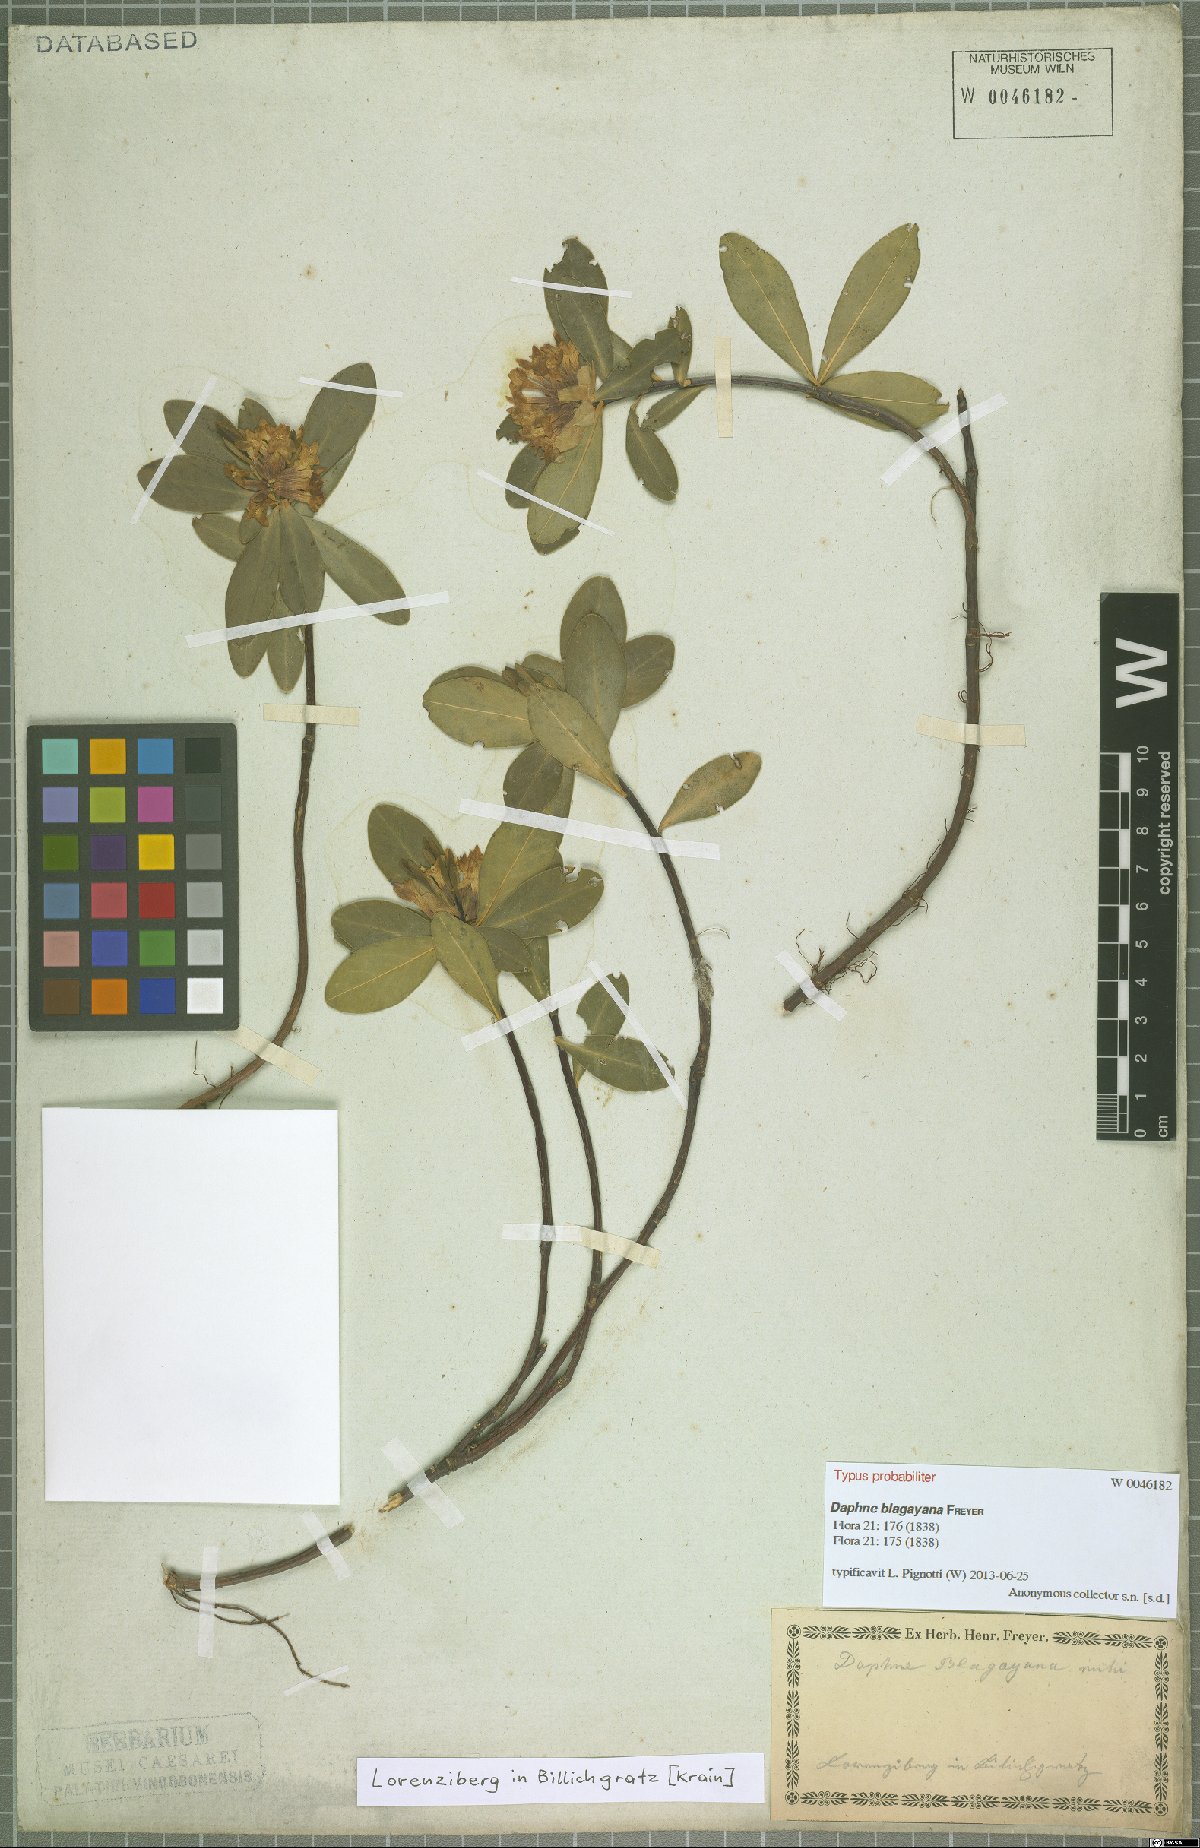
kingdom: Plantae
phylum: Tracheophyta
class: Magnoliopsida
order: Malvales
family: Thymelaeaceae
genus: Daphne
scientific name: Daphne blagayana
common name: Balkan daphne
